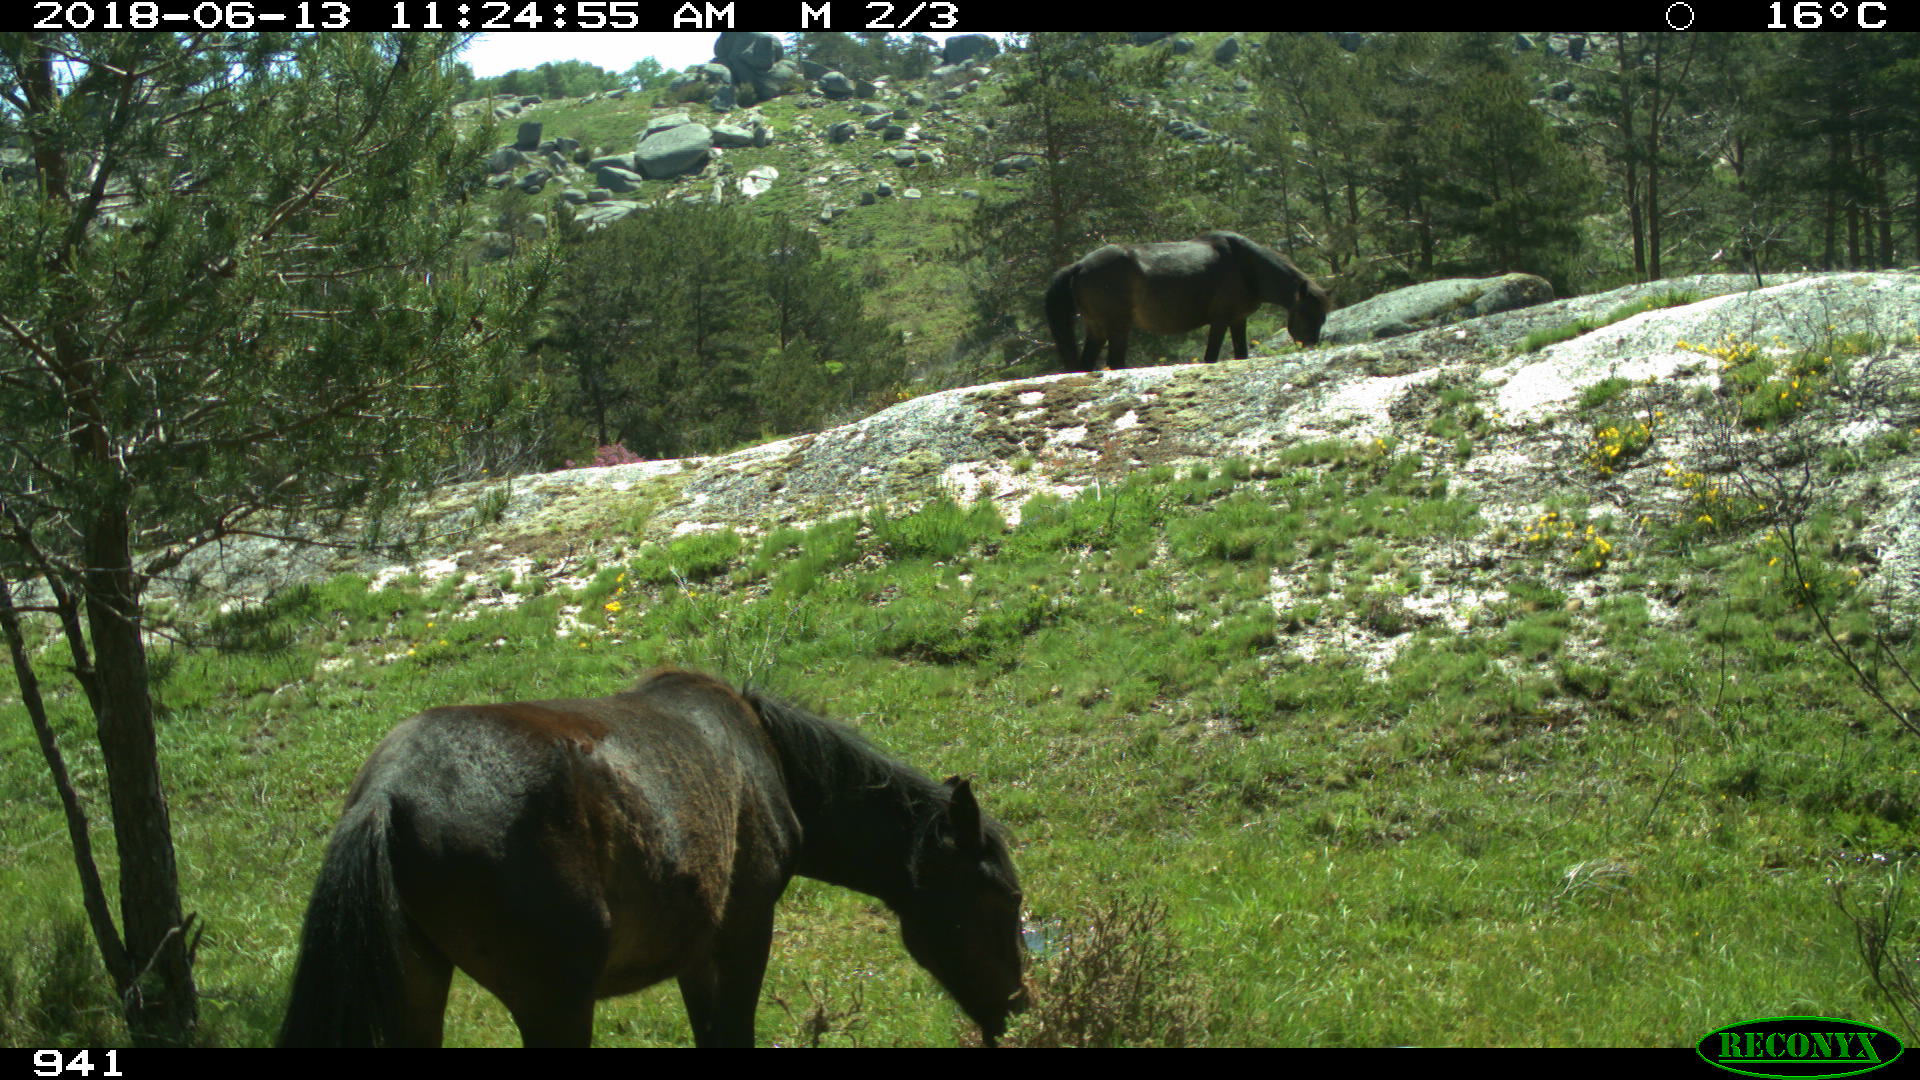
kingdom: Animalia
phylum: Chordata
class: Mammalia
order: Perissodactyla
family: Equidae
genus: Equus
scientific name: Equus caballus
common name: Horse
